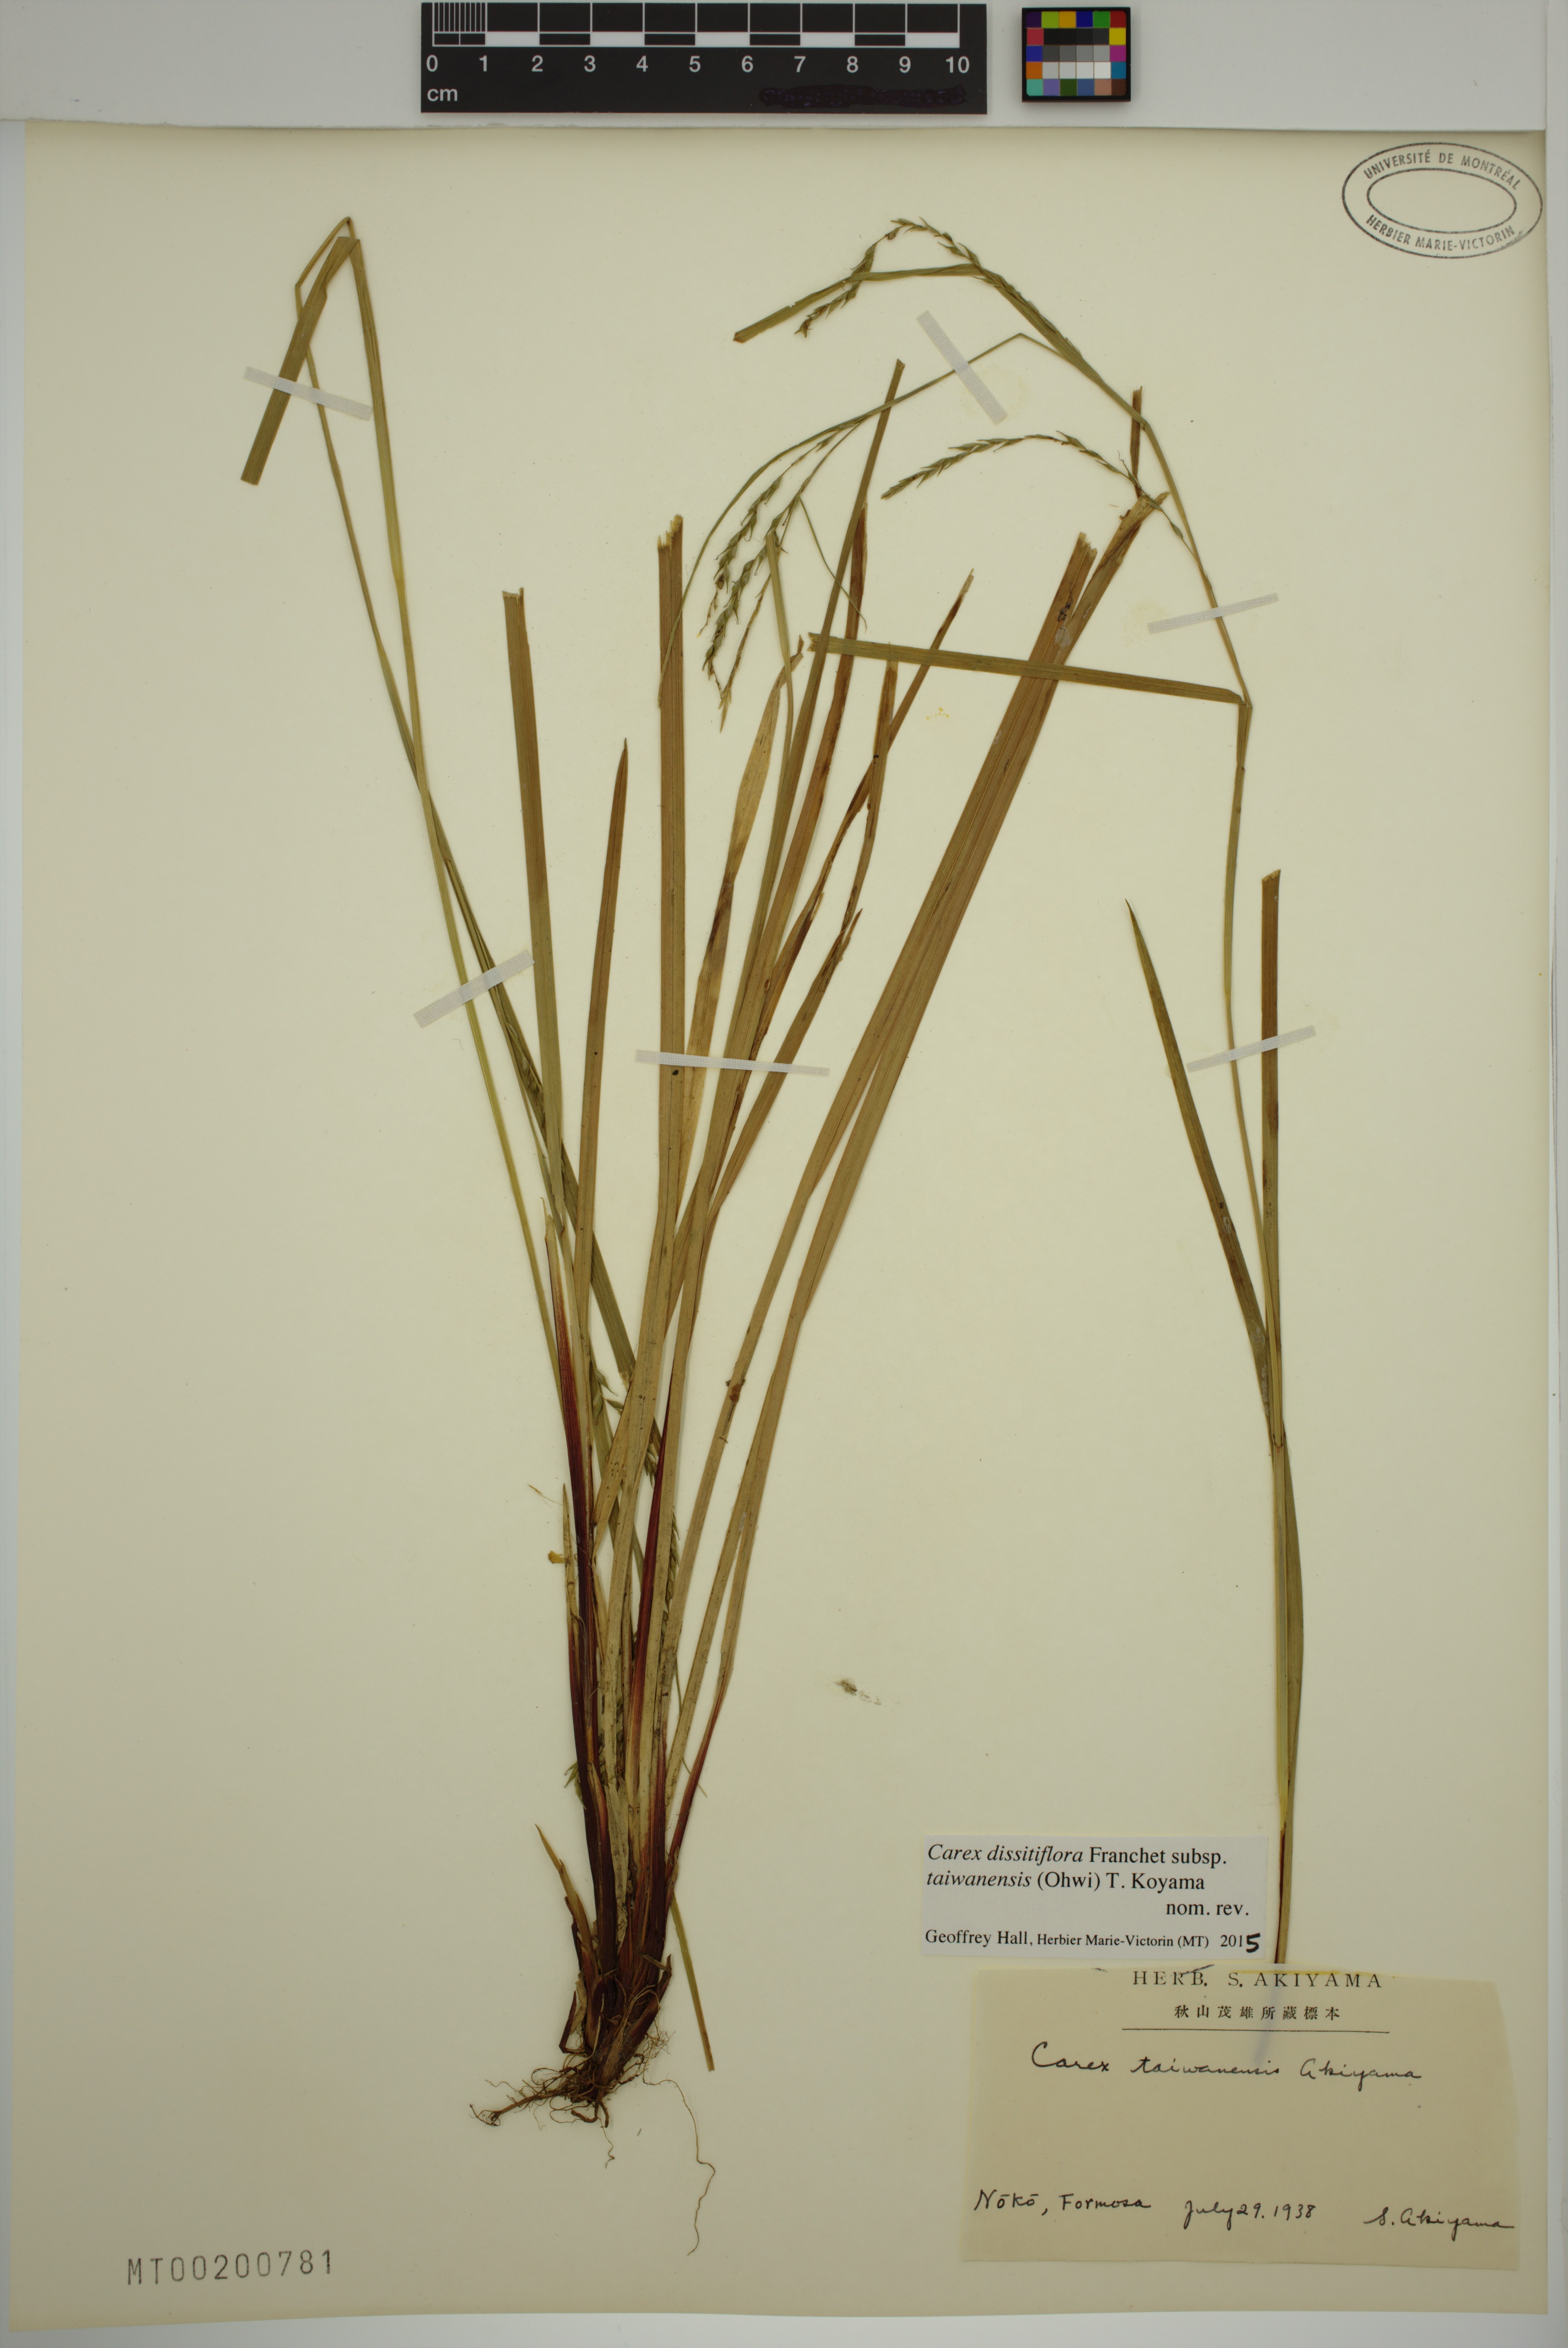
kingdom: Plantae
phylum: Tracheophyta
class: Liliopsida
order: Poales
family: Cyperaceae
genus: Carex
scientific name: Carex dissitiflora
